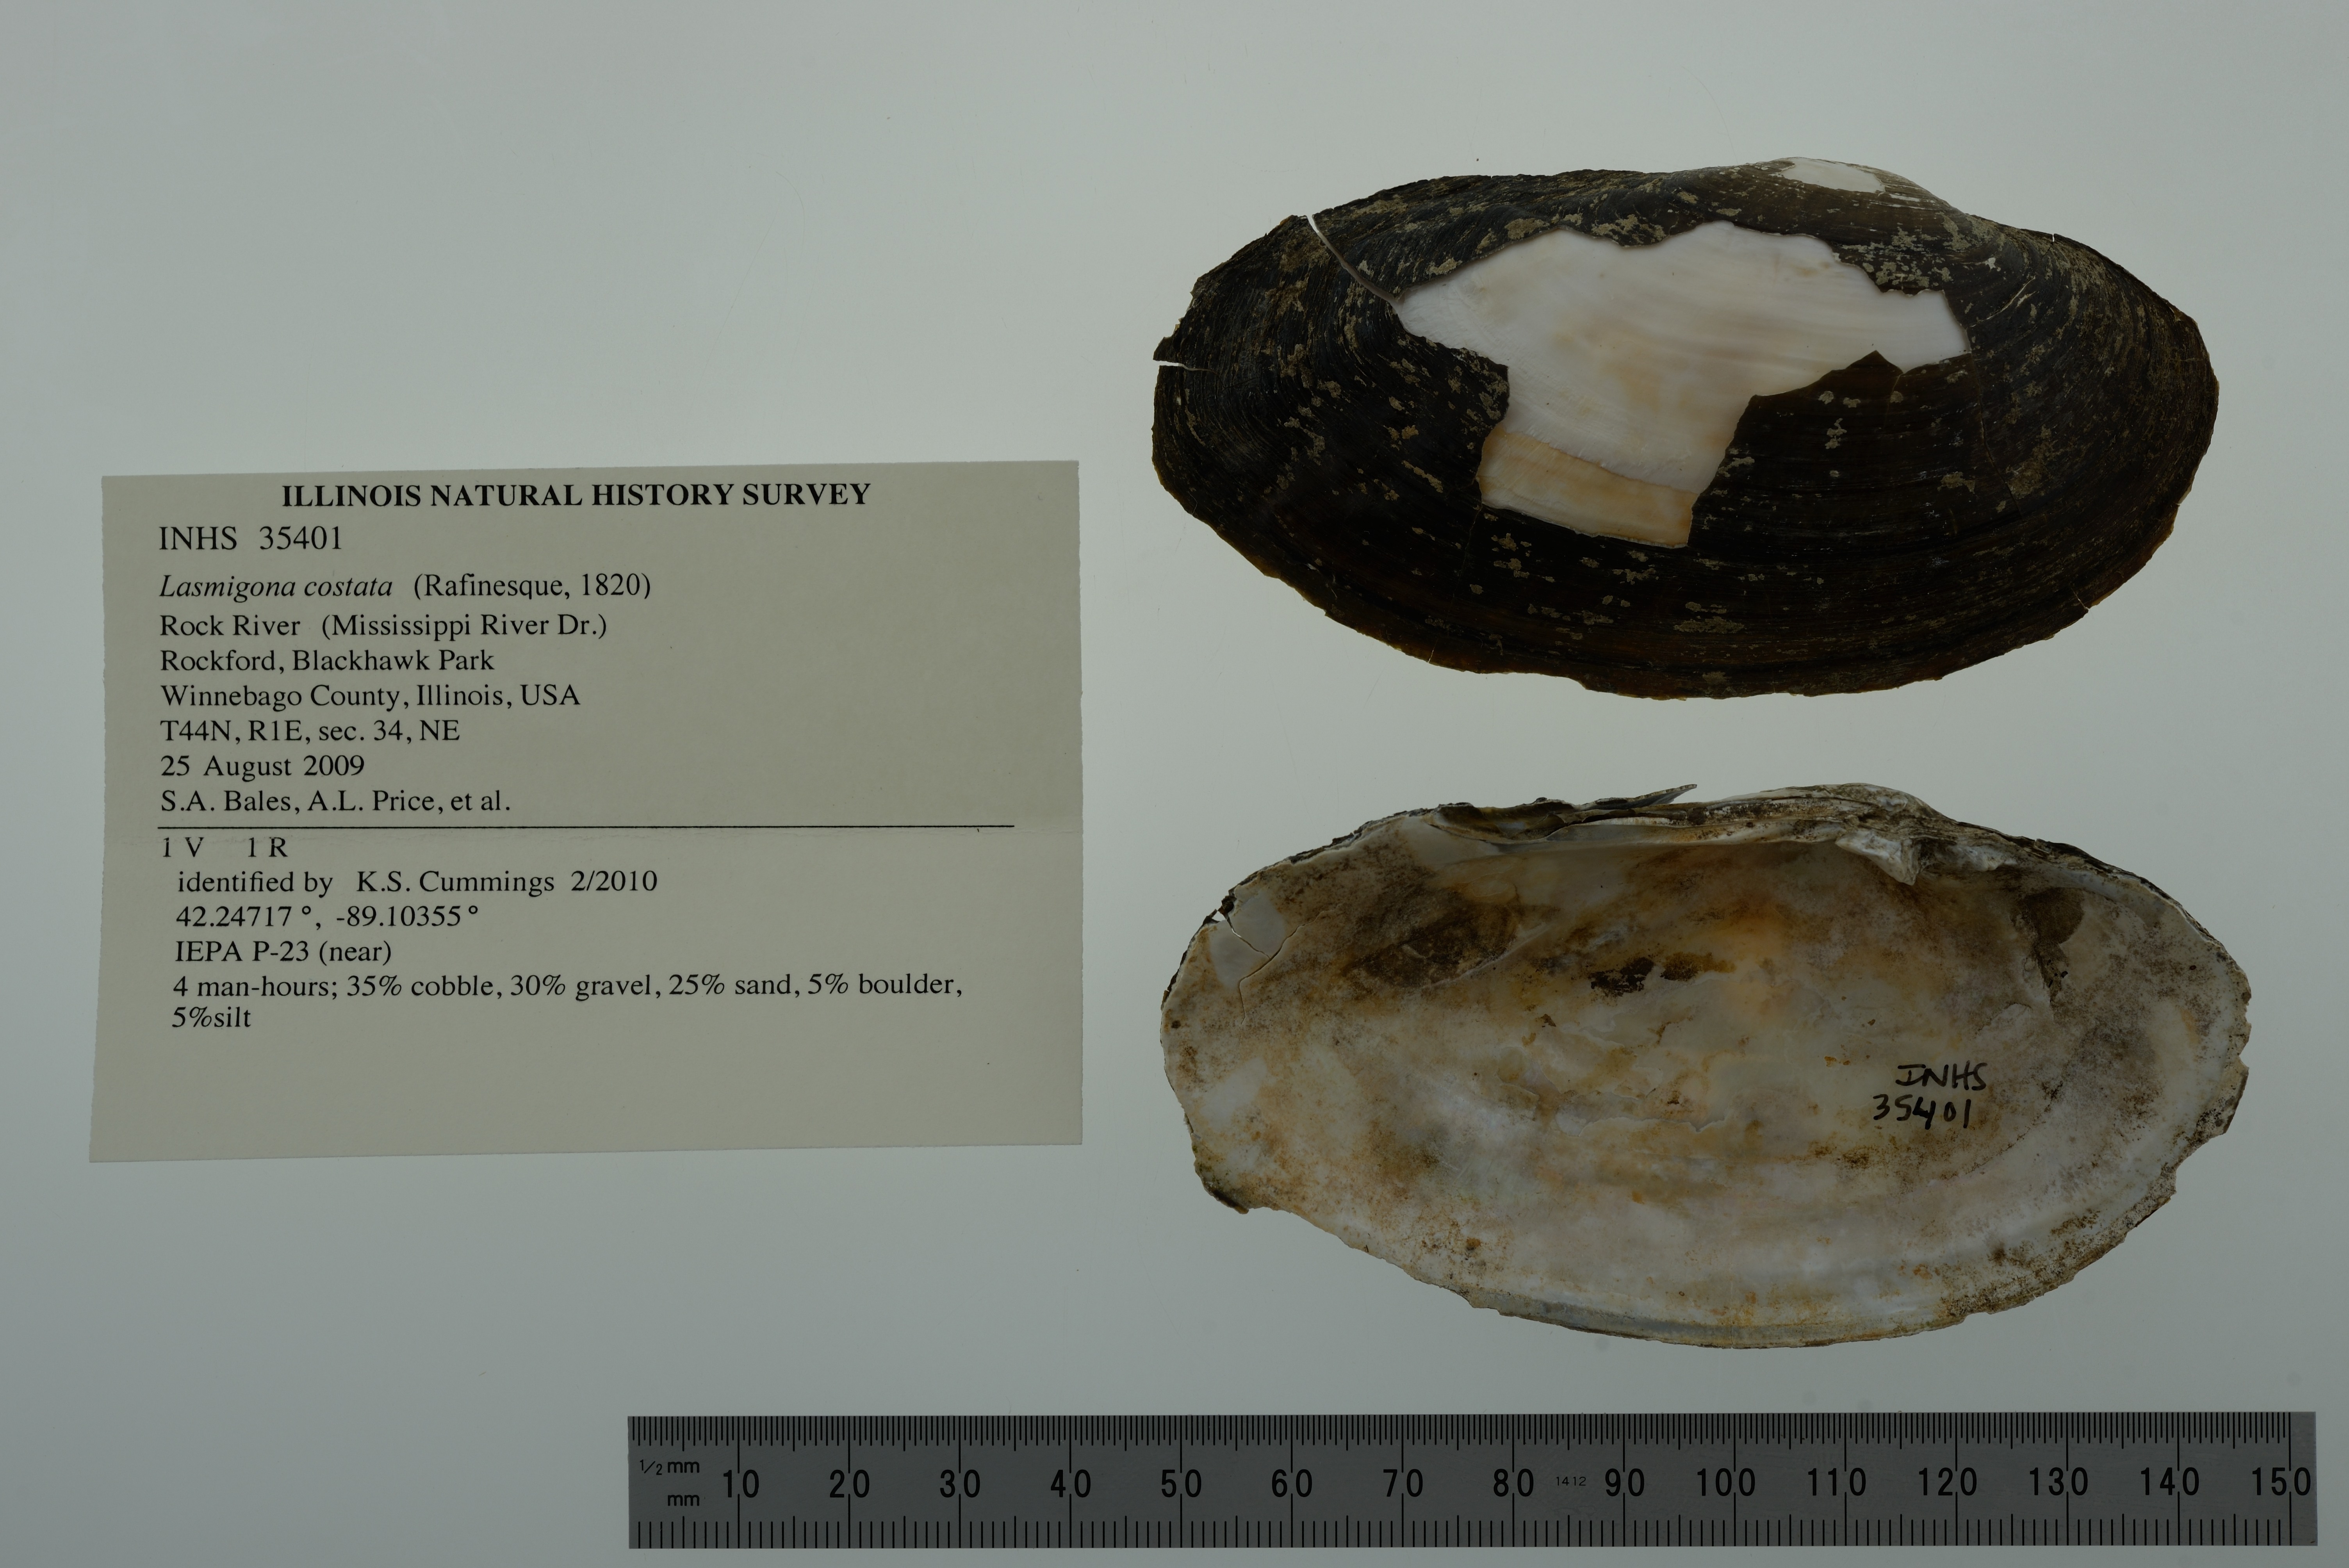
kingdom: Animalia
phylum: Mollusca
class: Bivalvia
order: Unionida
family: Unionidae
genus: Lasmigona
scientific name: Lasmigona costata
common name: Flutedshell
